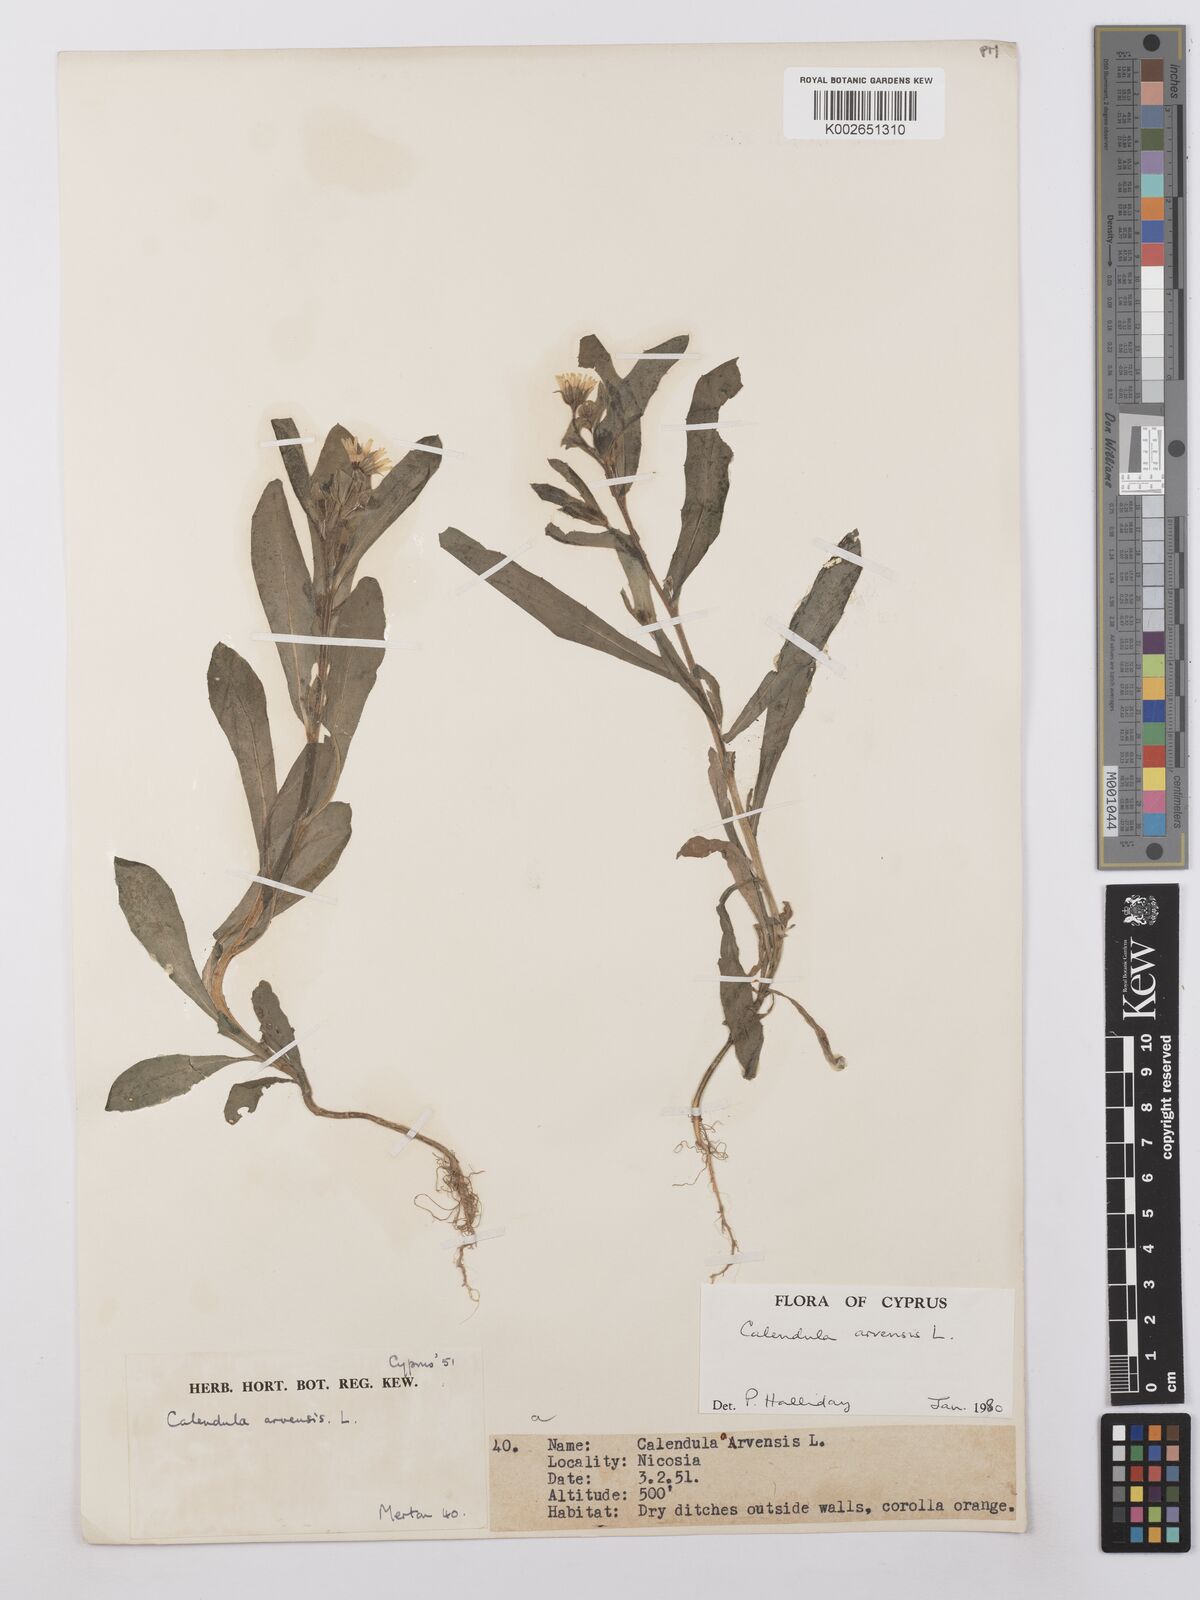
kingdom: Plantae
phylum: Tracheophyta
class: Magnoliopsida
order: Asterales
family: Asteraceae
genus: Calendula
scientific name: Calendula arvensis
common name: Field marigold
